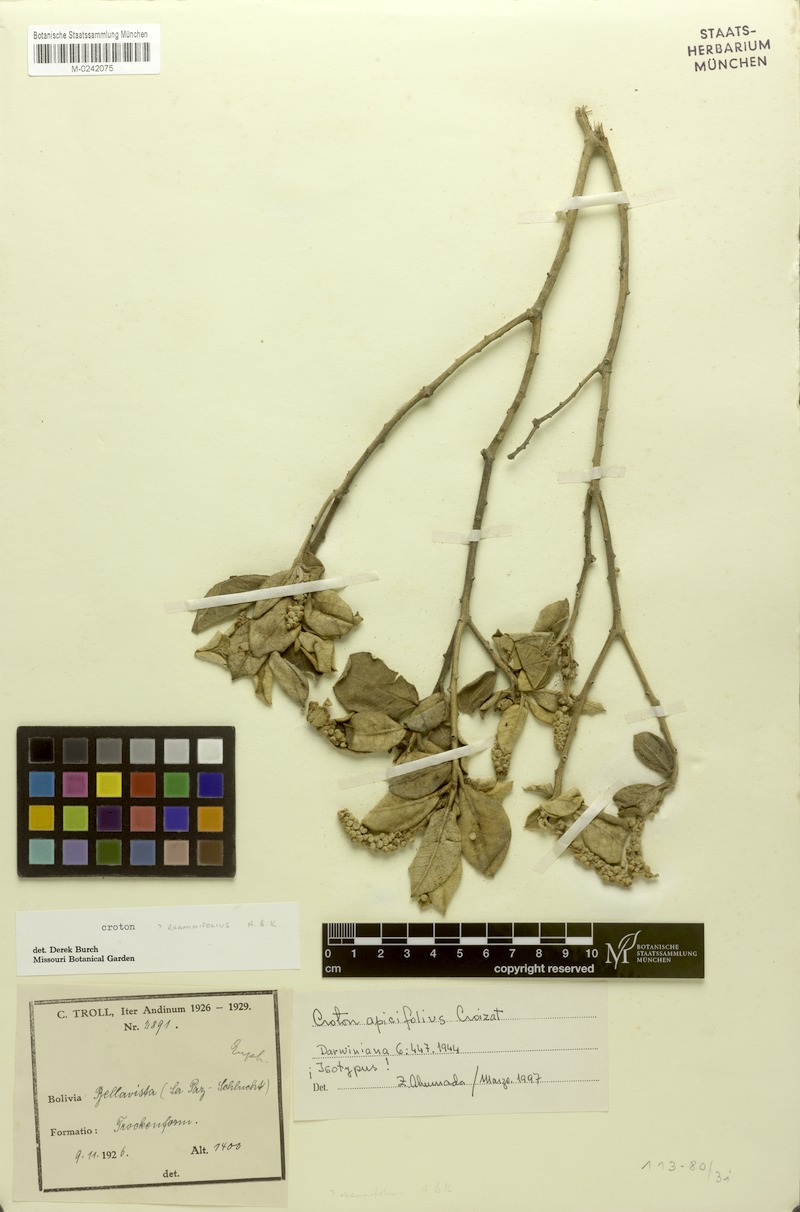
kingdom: Plantae
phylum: Tracheophyta
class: Magnoliopsida
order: Malpighiales
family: Euphorbiaceae
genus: Croton
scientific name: Croton apicifolius
